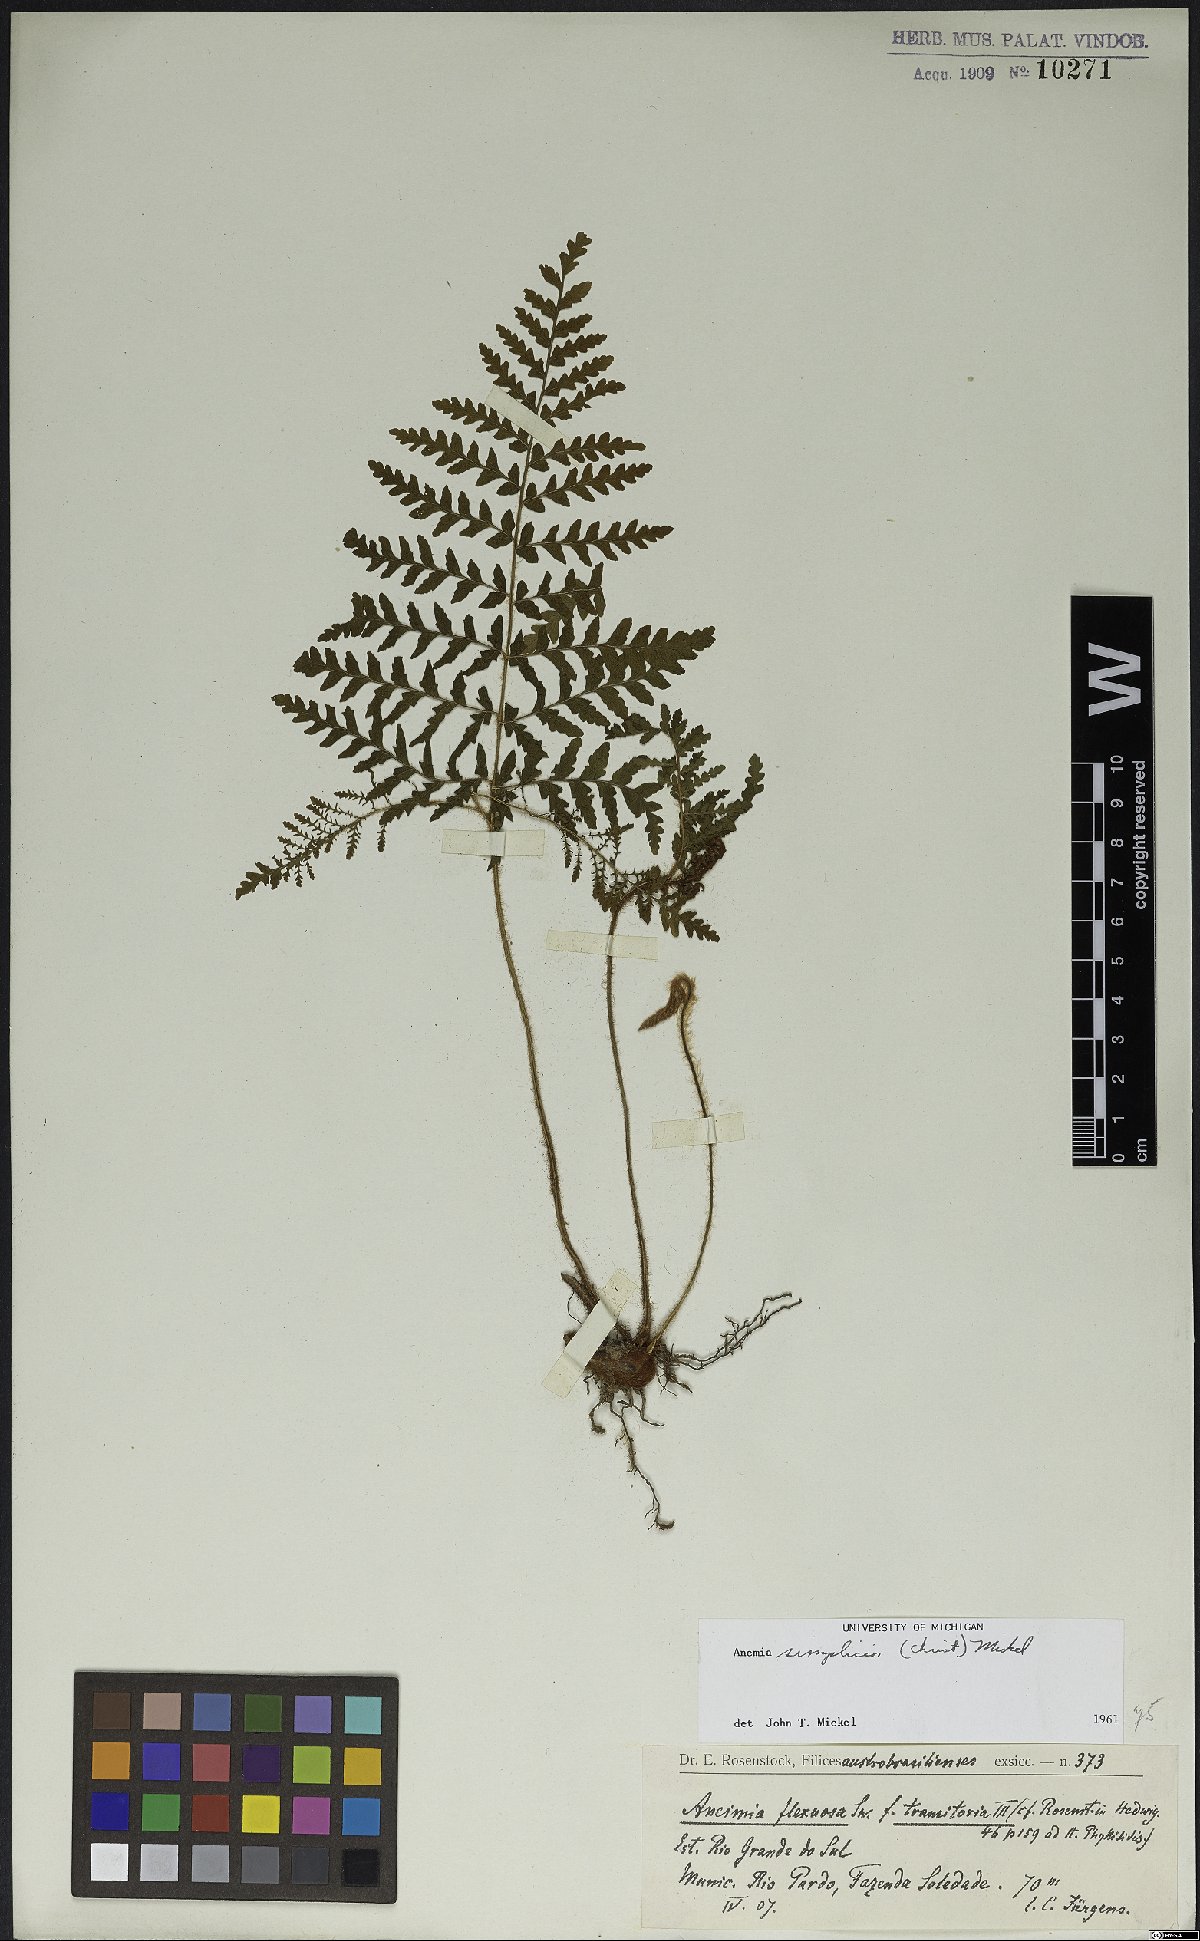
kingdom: Plantae
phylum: Tracheophyta
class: Polypodiopsida
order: Schizaeales
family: Anemiaceae
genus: Anemia
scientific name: Anemia simplicior
